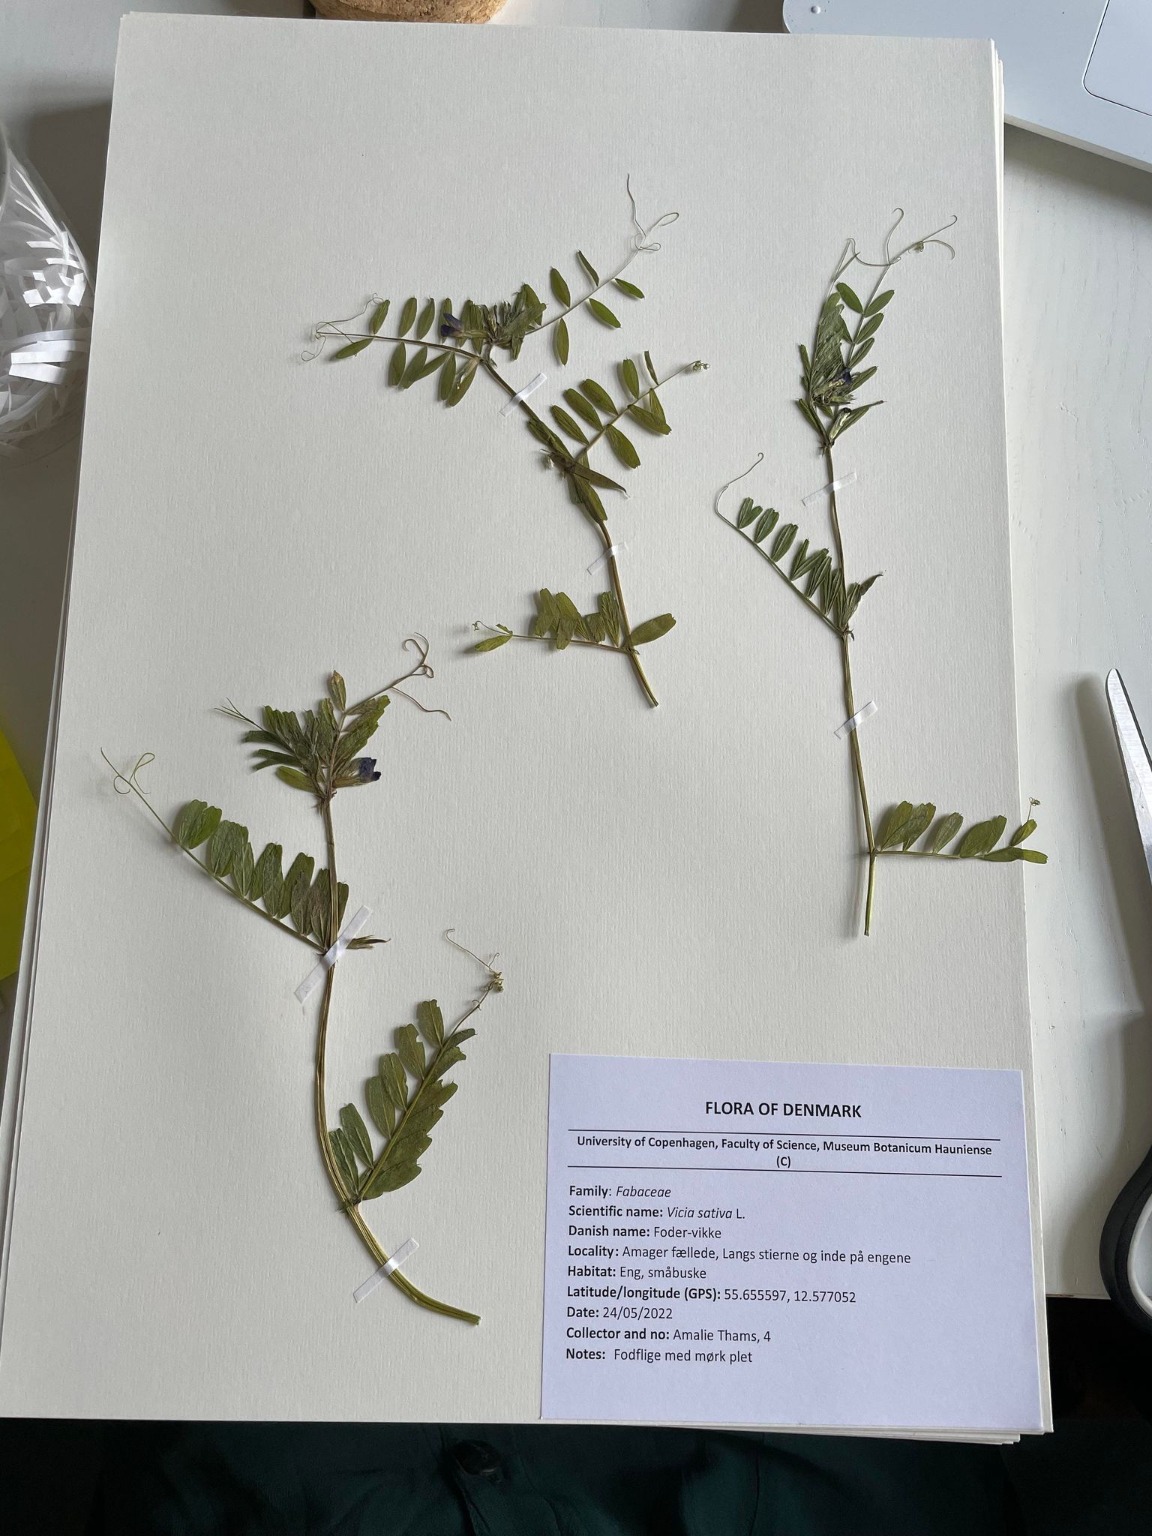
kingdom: Plantae
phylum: Tracheophyta
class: Magnoliopsida
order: Fabales
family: Fabaceae
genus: Vicia
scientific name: Vicia sativa
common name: Foder-vikke
